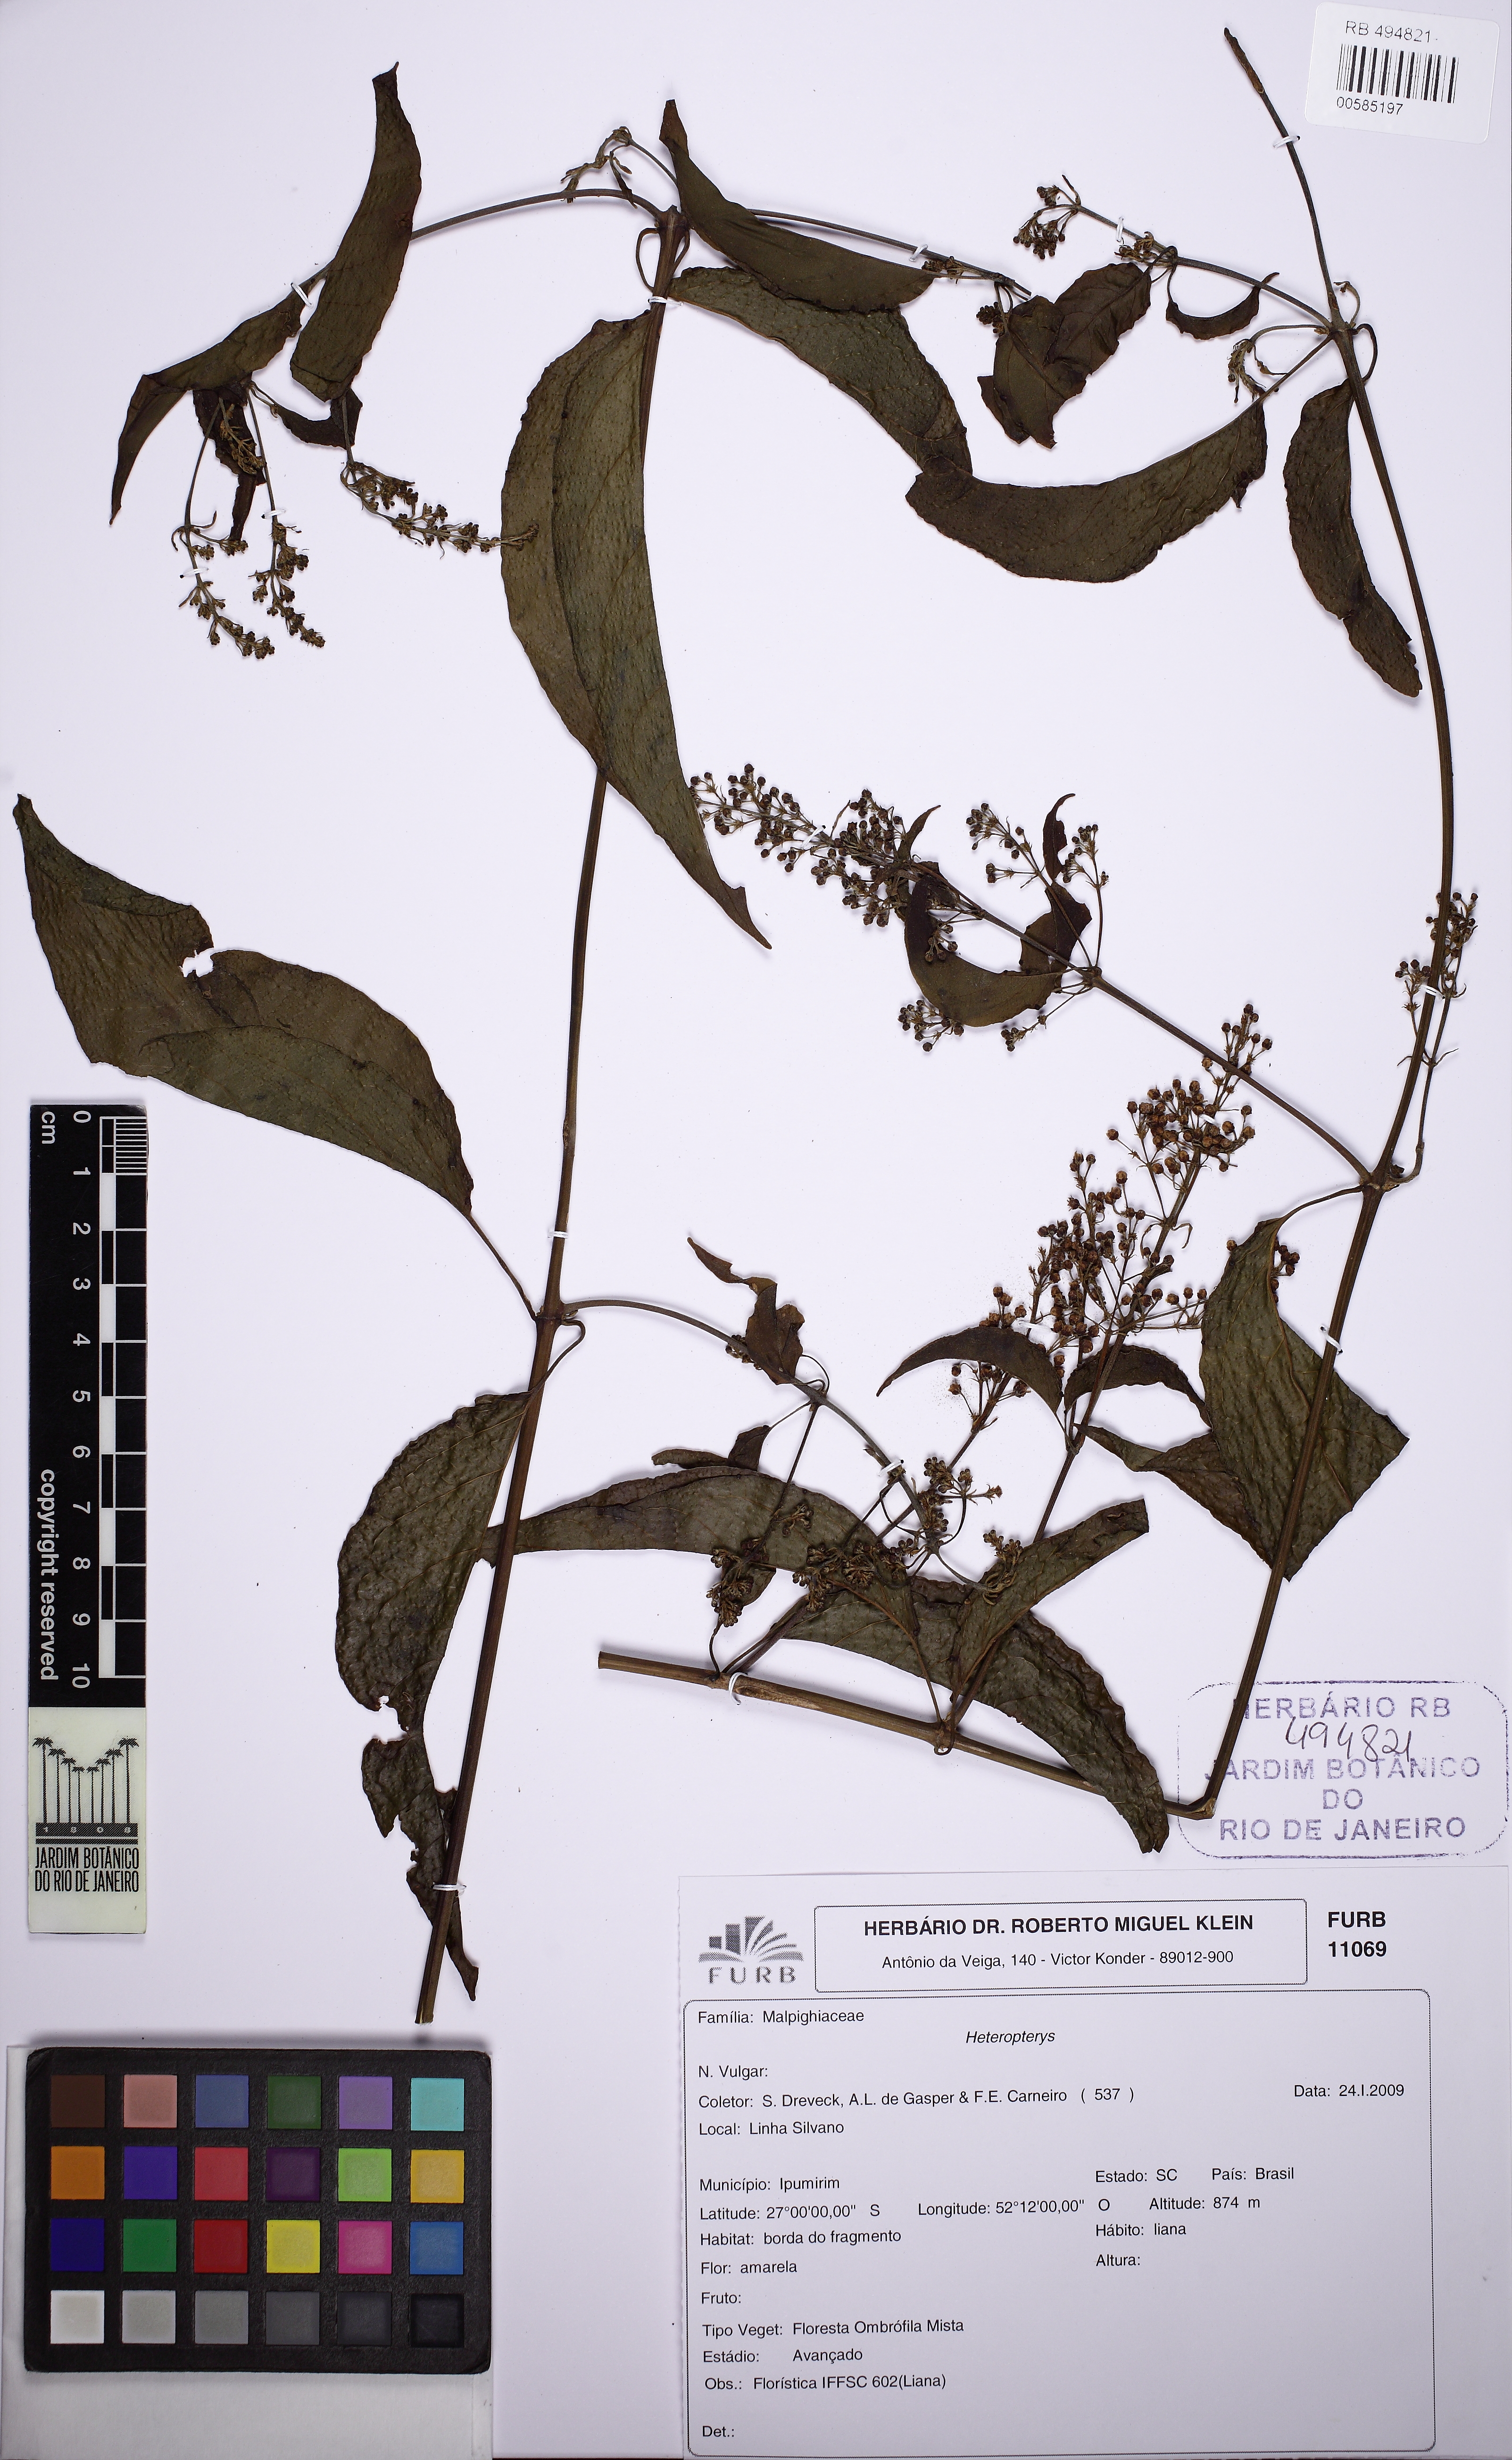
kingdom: Plantae
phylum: Tracheophyta
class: Magnoliopsida
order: Malpighiales
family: Malpighiaceae
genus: Heteropterys
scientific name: Heteropterys
